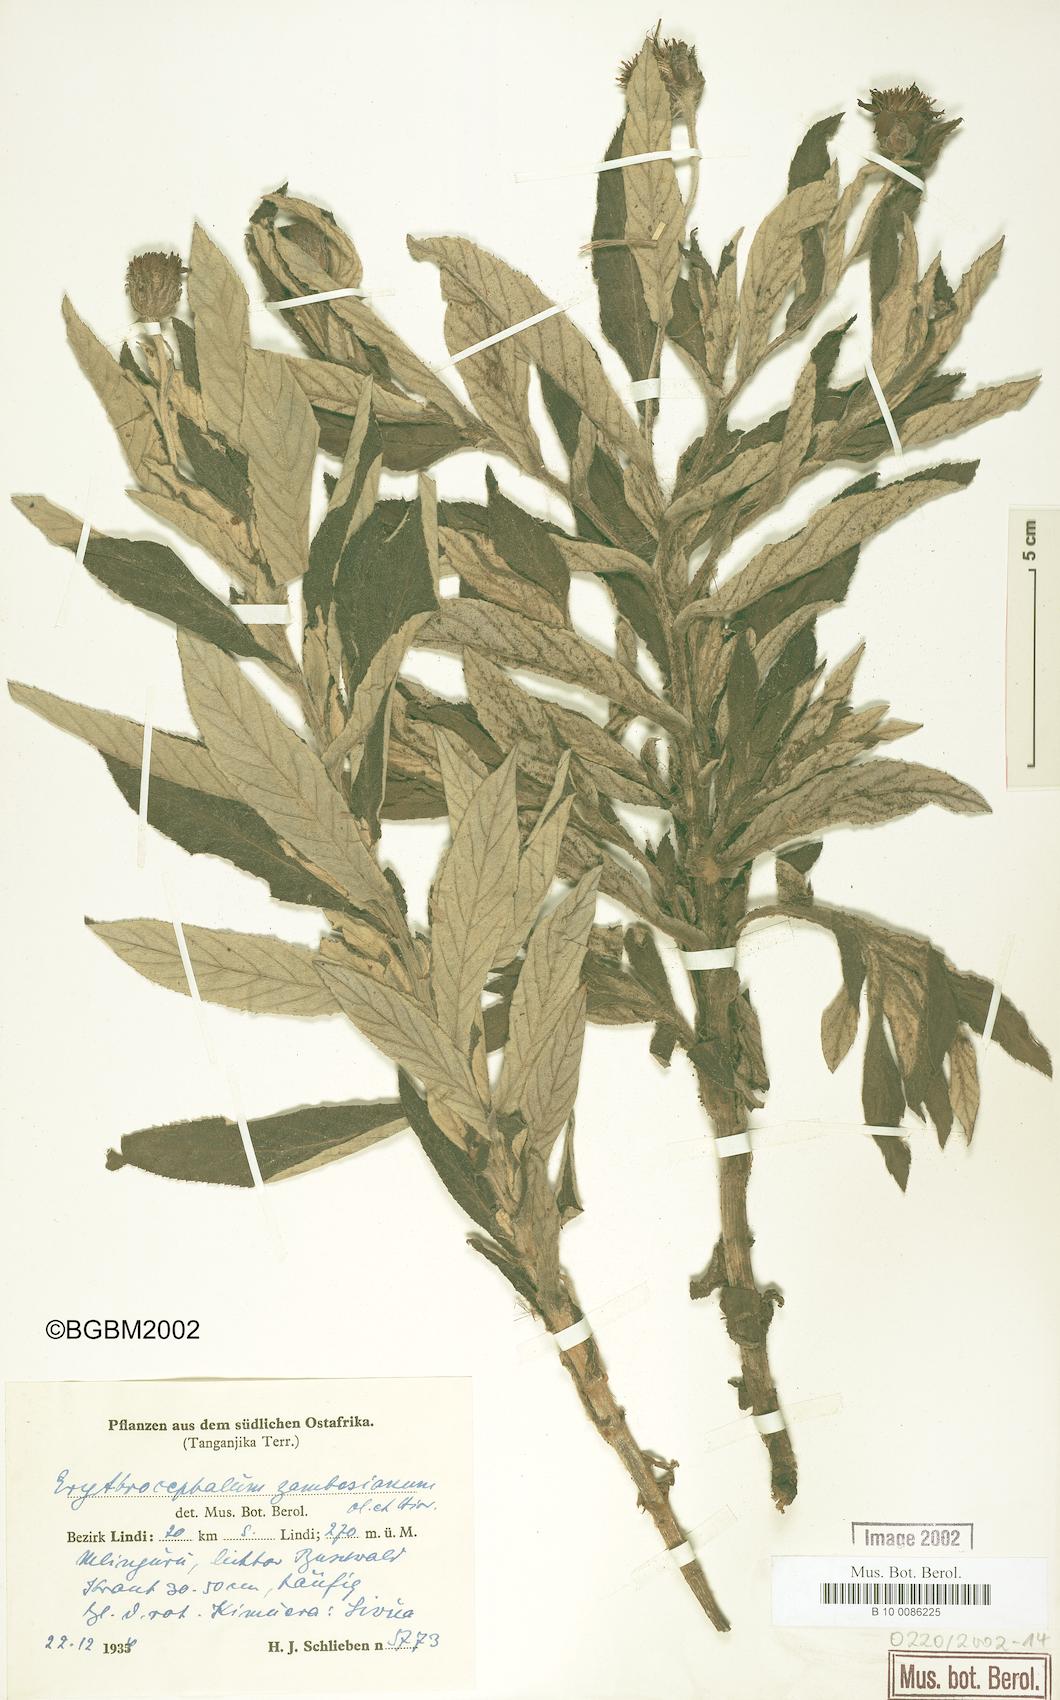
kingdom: Plantae
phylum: Tracheophyta
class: Magnoliopsida
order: Asterales
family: Asteraceae
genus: Erythrocephalum
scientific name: Erythrocephalum longifolium
